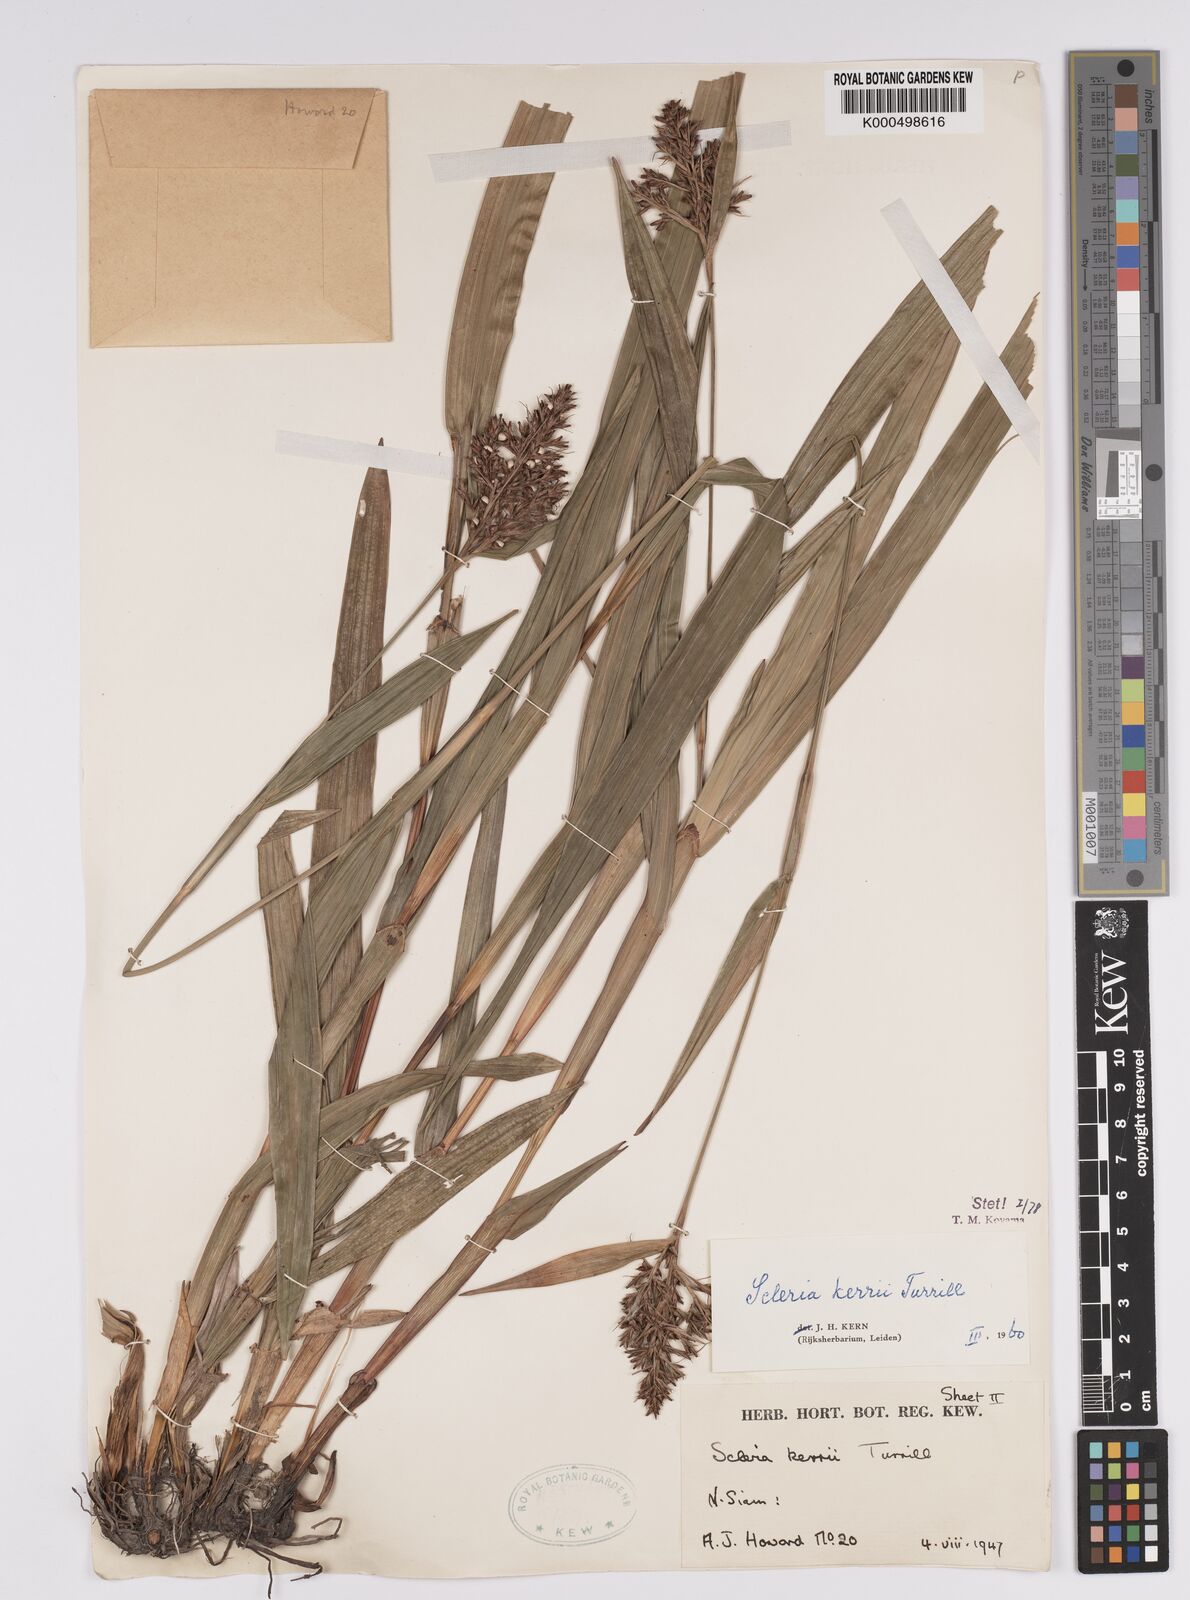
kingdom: Plantae
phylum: Tracheophyta
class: Liliopsida
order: Poales
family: Cyperaceae
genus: Scleria
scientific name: Scleria kerrii
